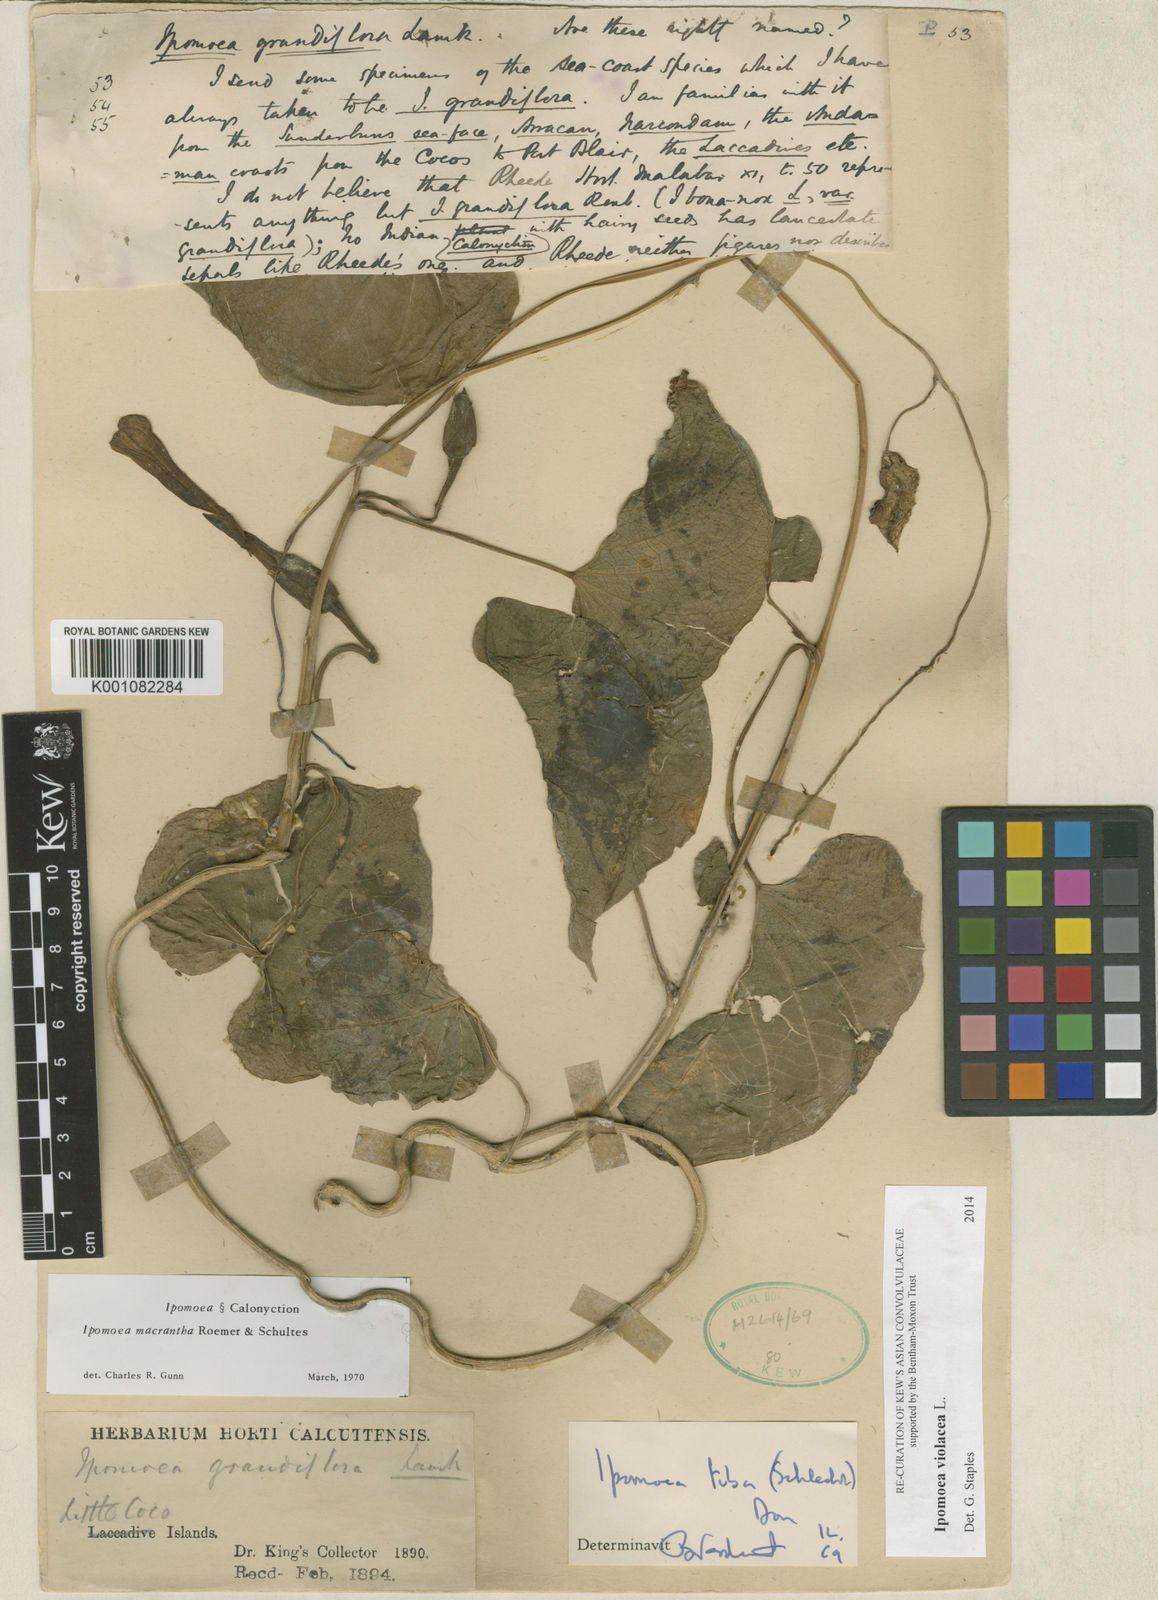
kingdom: Plantae
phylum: Tracheophyta
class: Magnoliopsida
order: Solanales
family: Convolvulaceae
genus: Ipomoea
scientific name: Ipomoea violacea
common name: Beach moonflower
